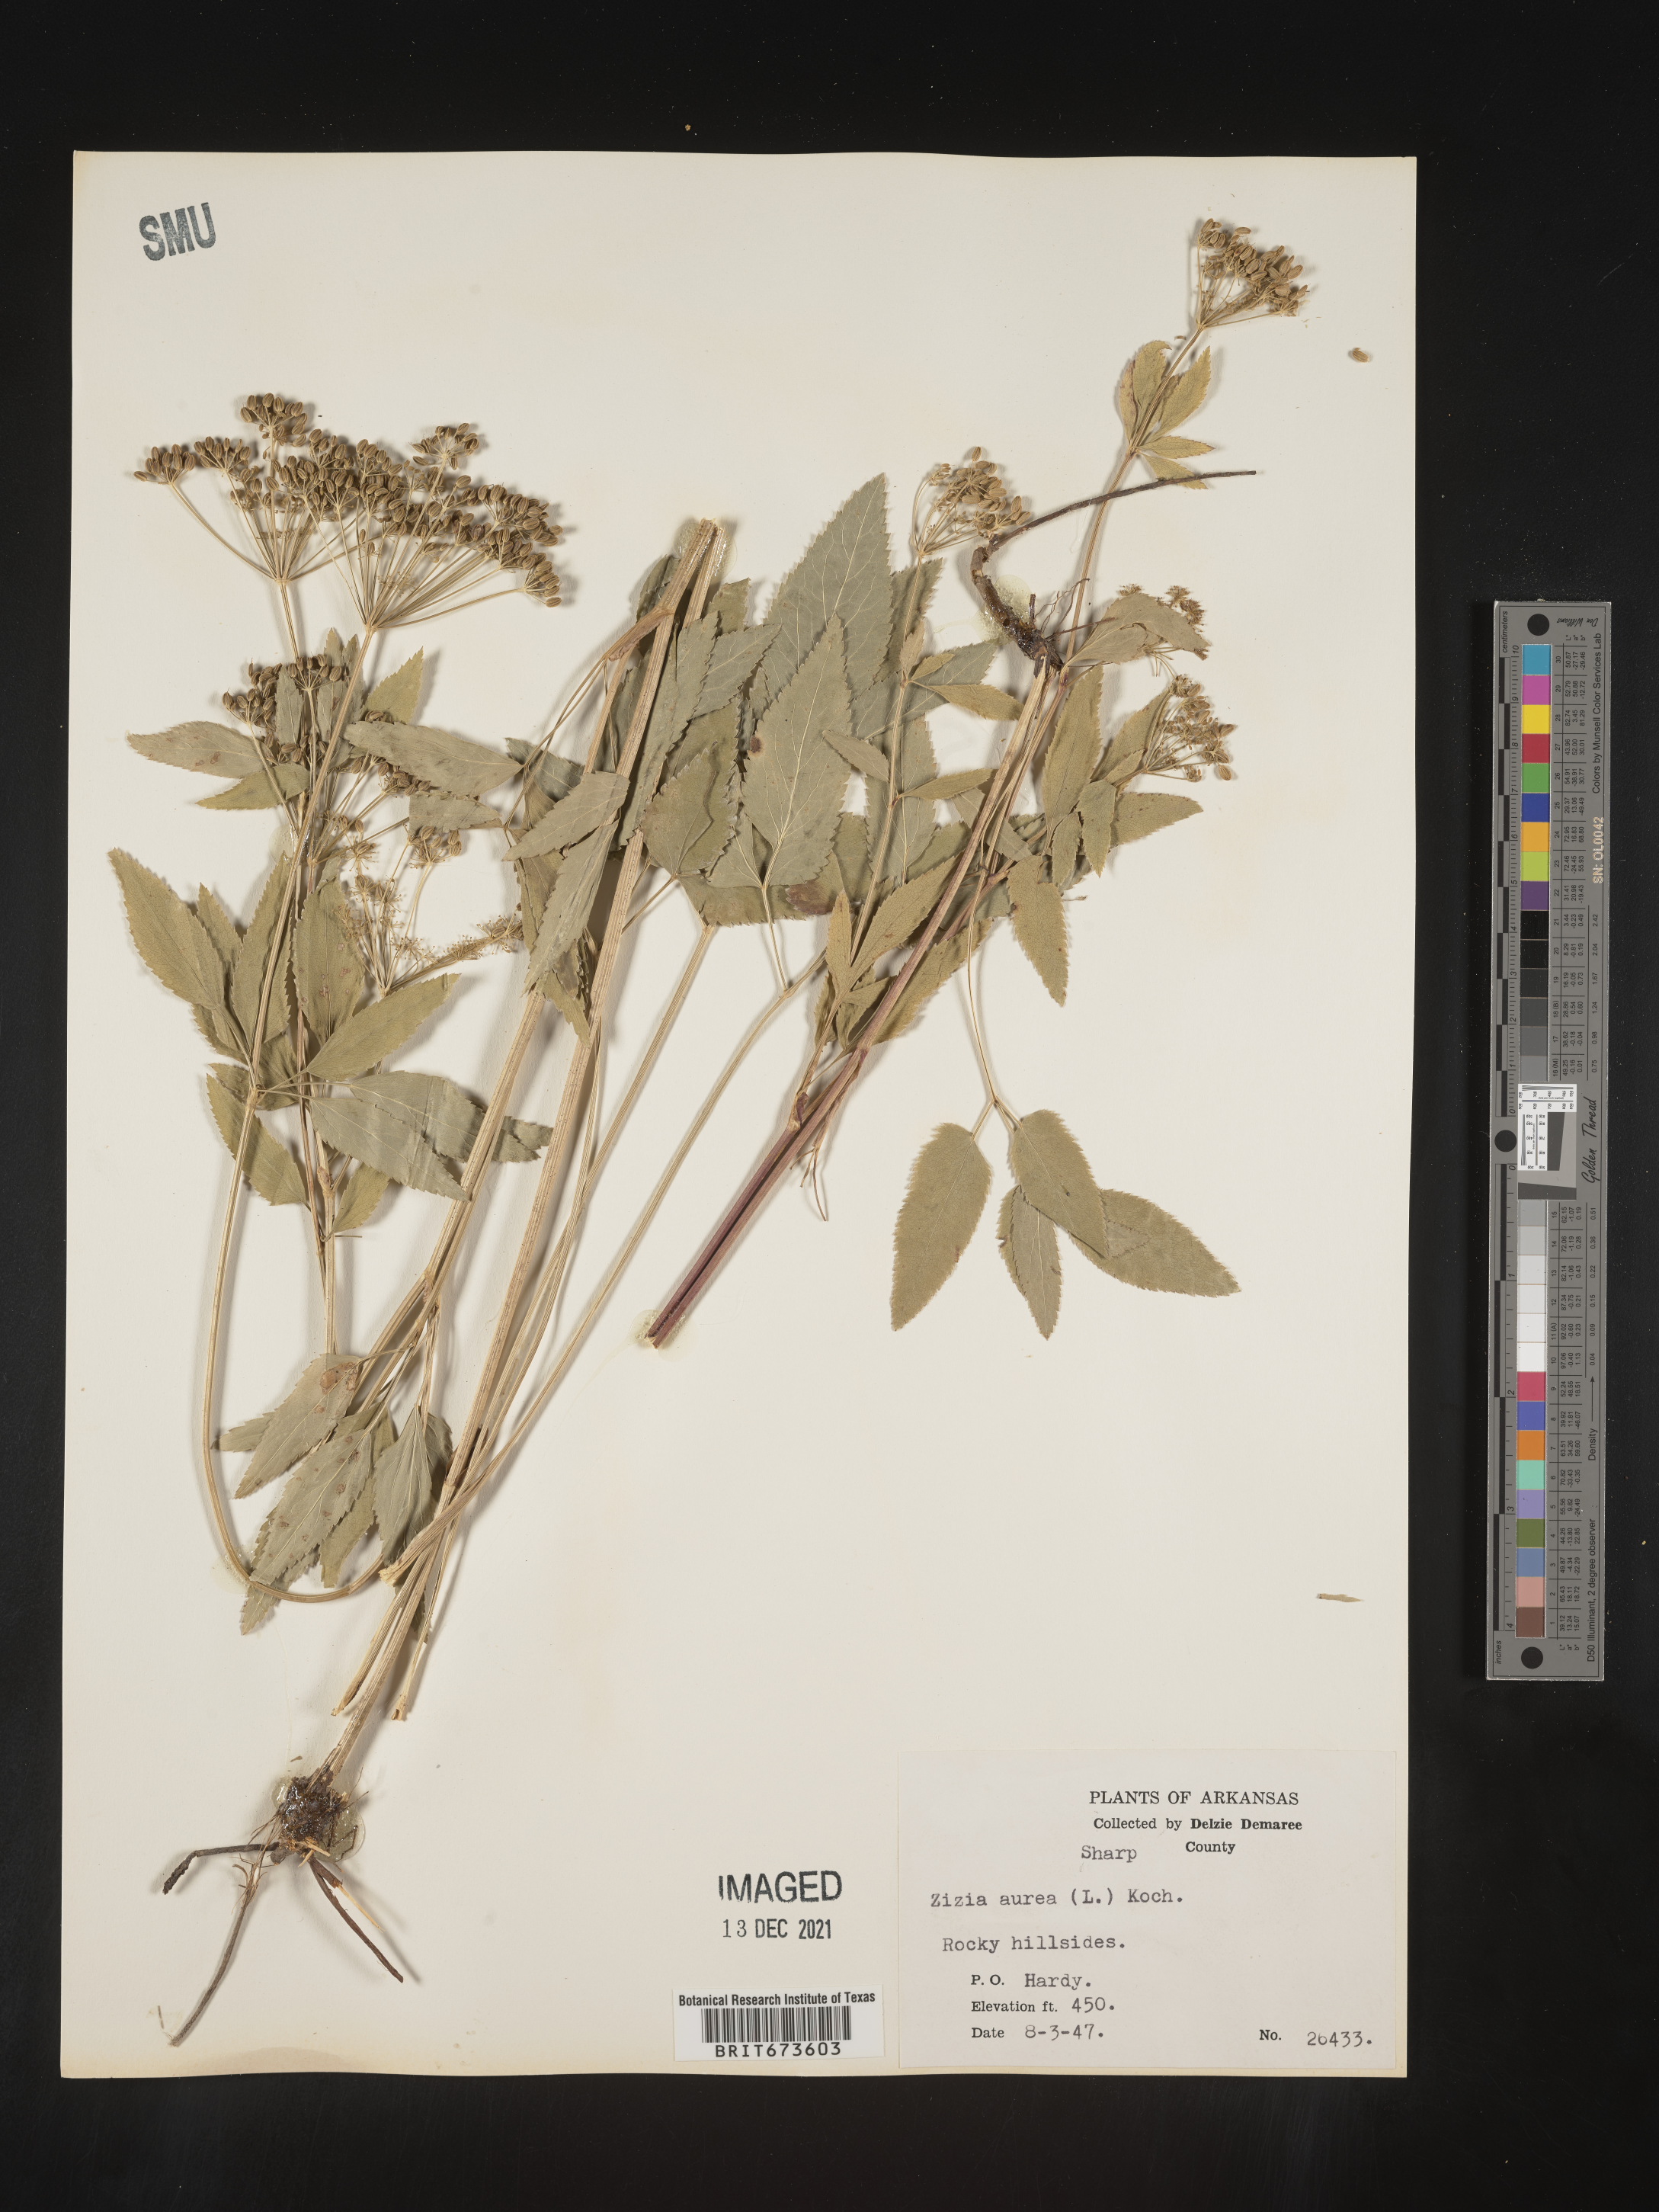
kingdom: Plantae
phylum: Tracheophyta
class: Magnoliopsida
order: Apiales
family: Apiaceae
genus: Zizia
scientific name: Zizia aurea
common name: Golden alexanders
